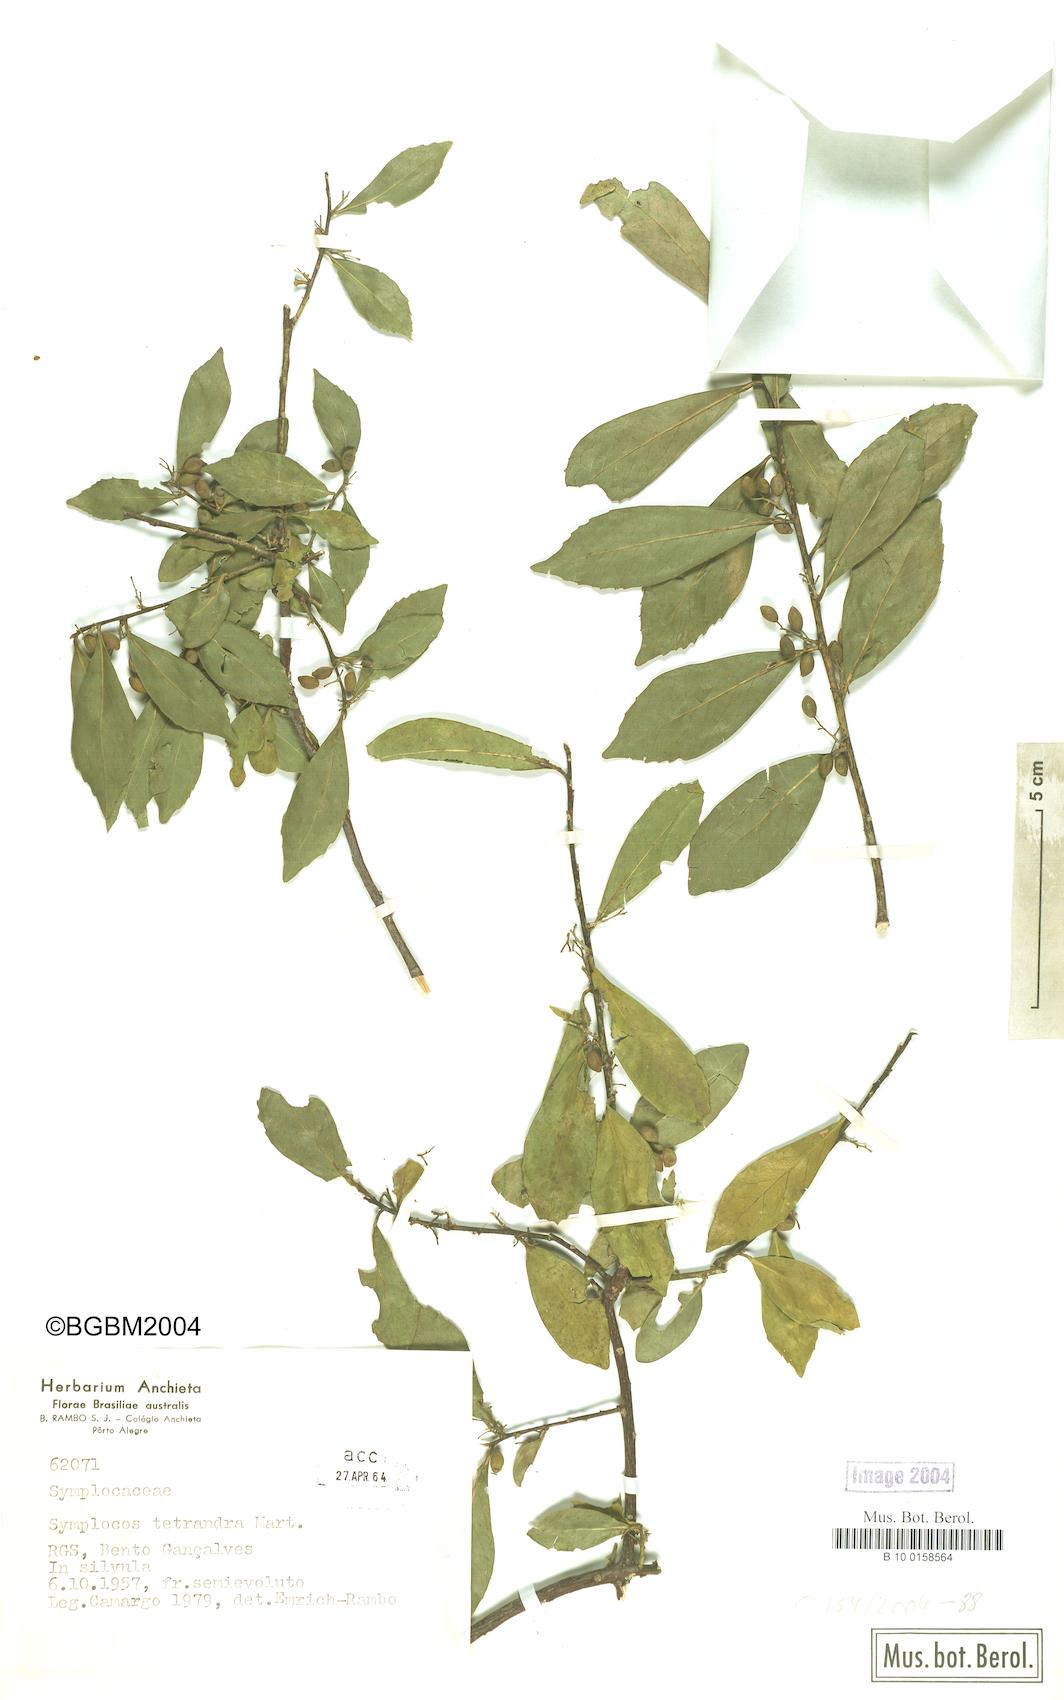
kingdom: Plantae
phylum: Tracheophyta
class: Magnoliopsida
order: Ericales
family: Symplocaceae
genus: Symplocos
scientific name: Symplocos tetrandra
